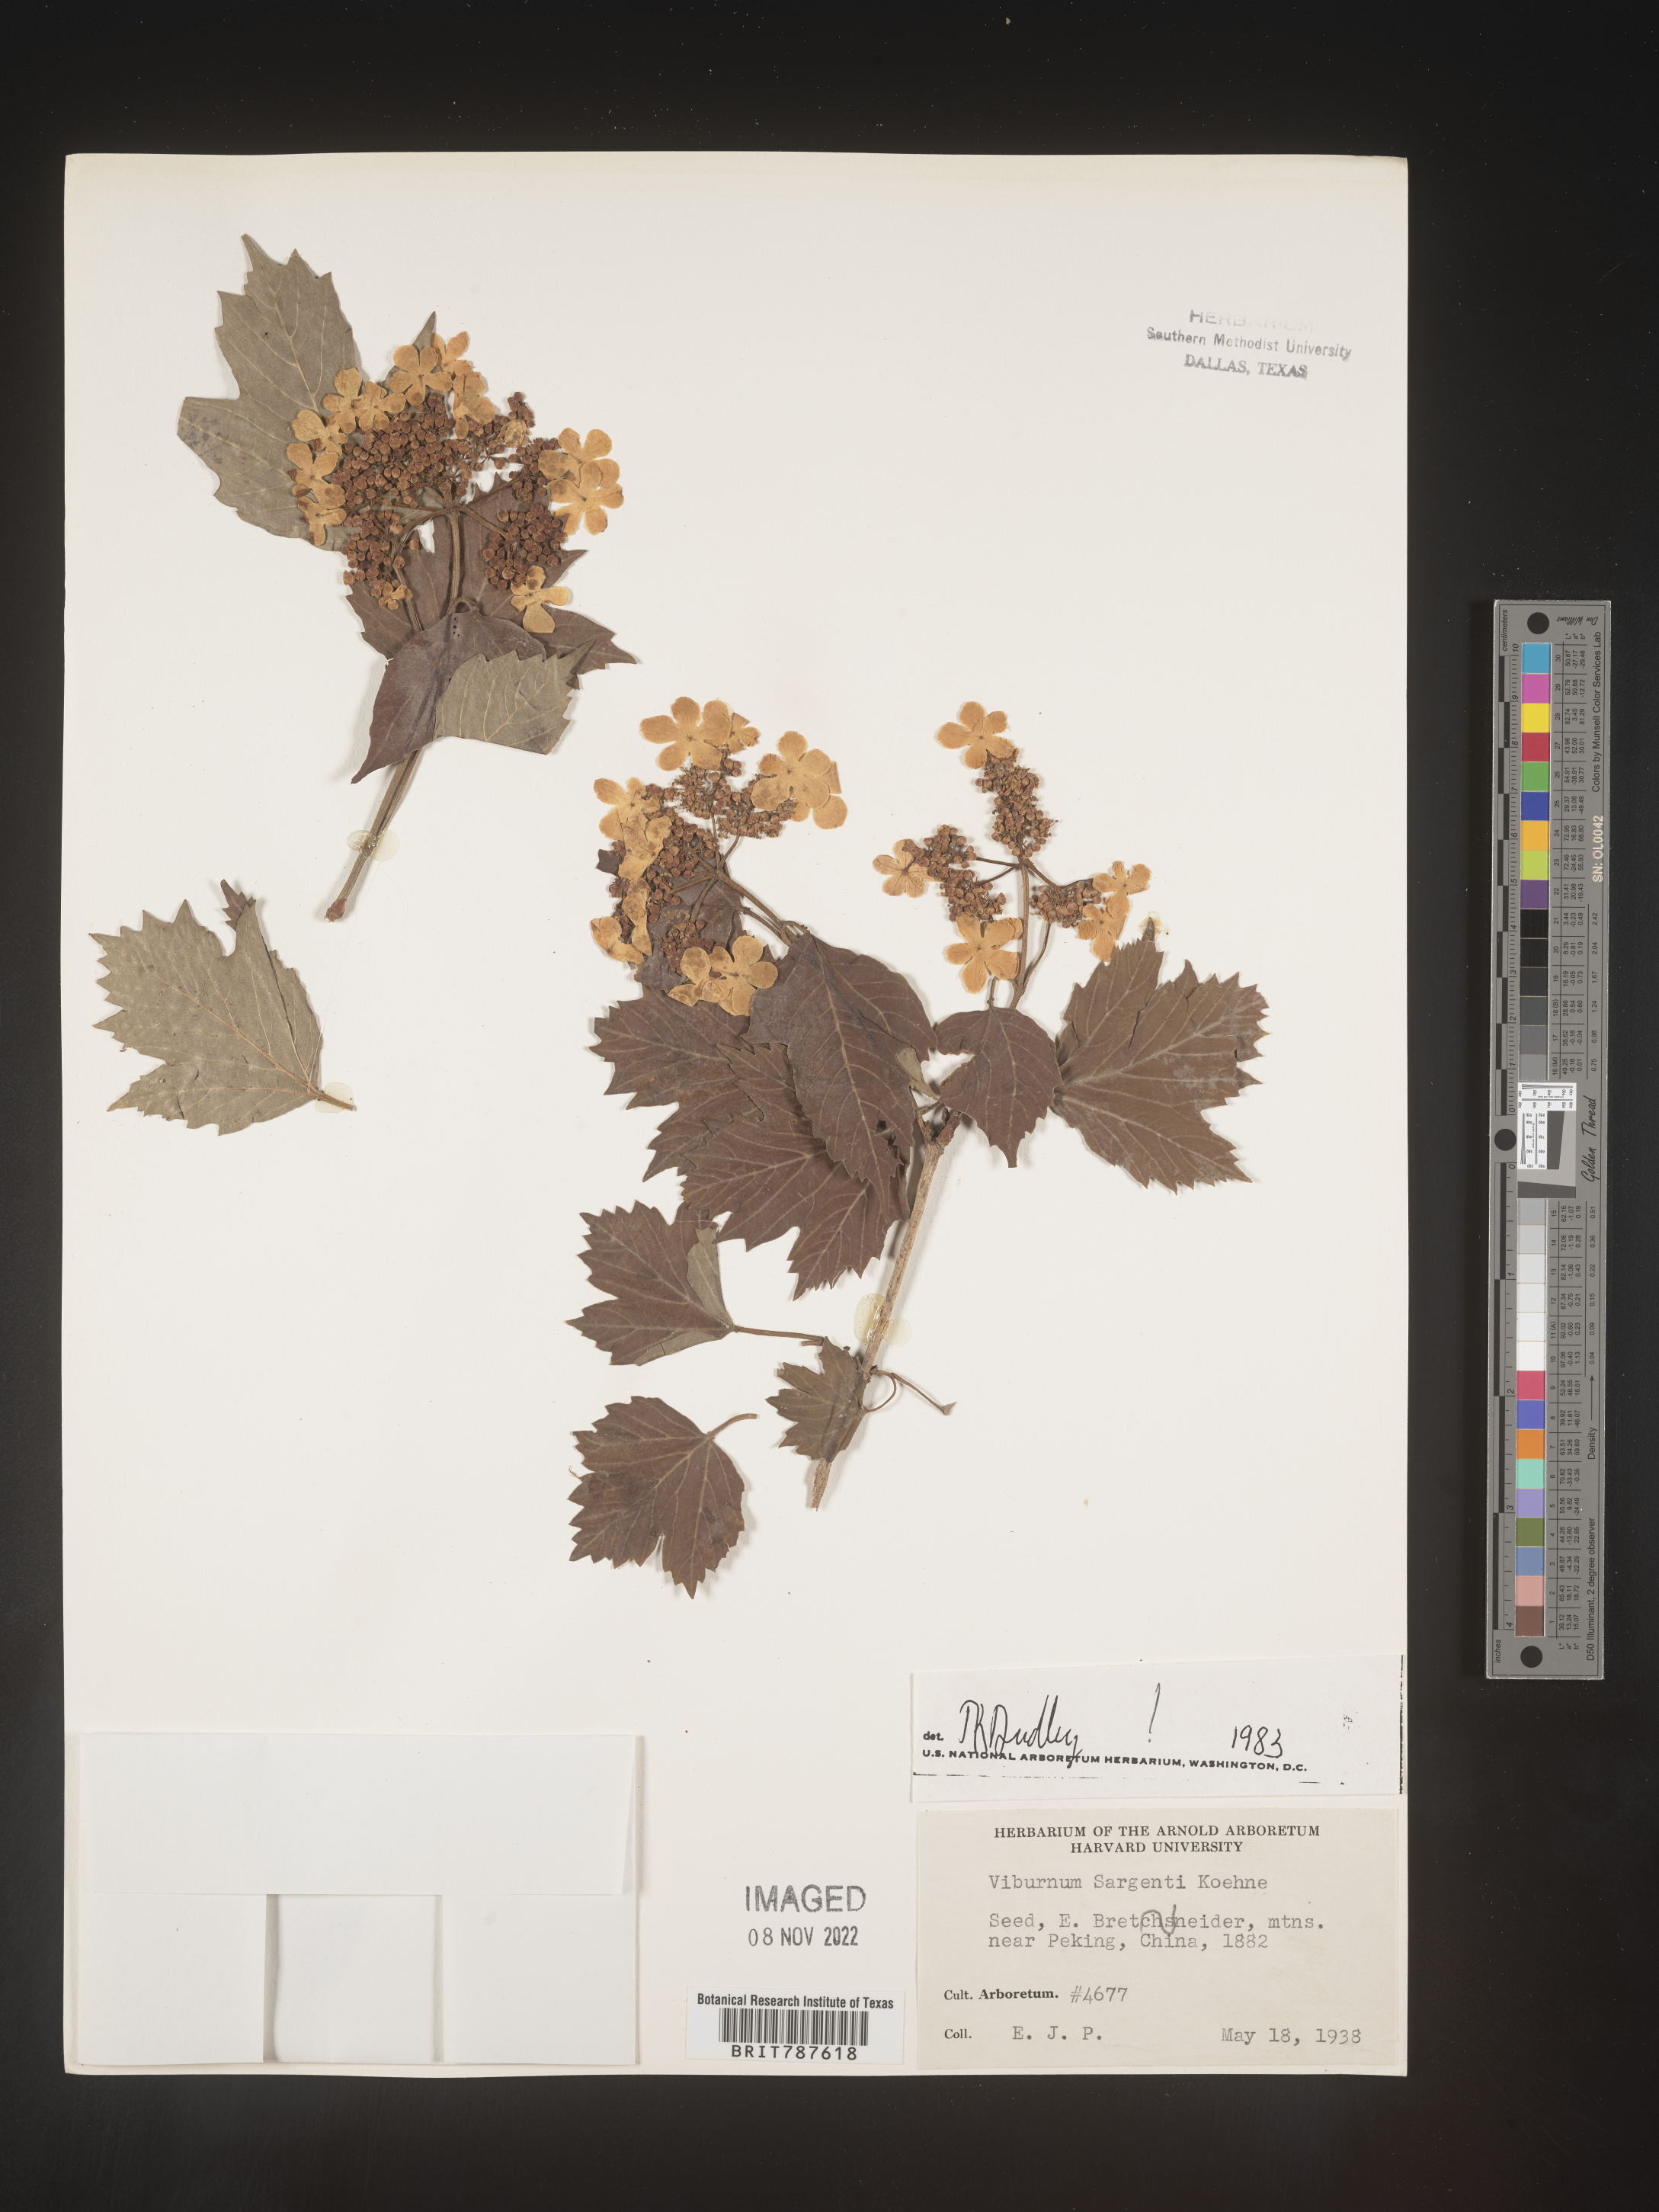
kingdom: Plantae
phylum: Tracheophyta
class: Magnoliopsida
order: Dipsacales
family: Viburnaceae
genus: Viburnum
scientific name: Viburnum
